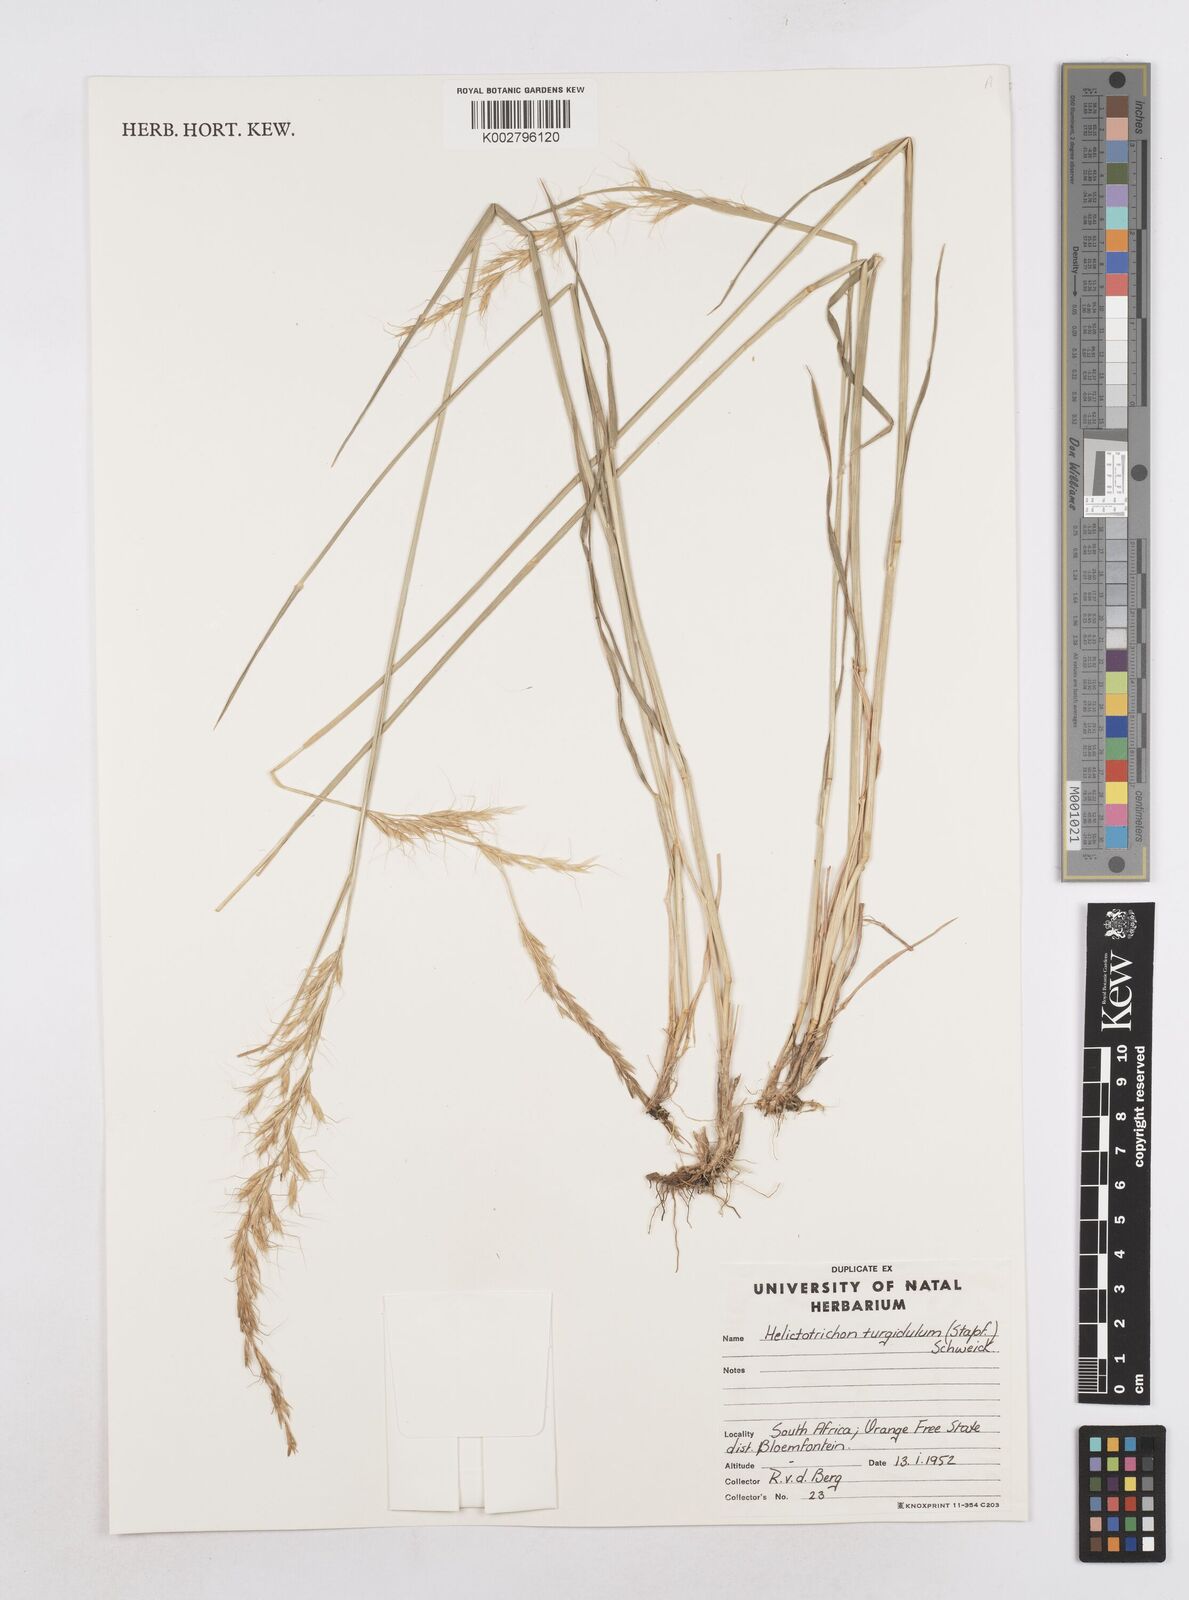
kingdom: Plantae
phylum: Tracheophyta
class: Liliopsida
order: Poales
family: Poaceae
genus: Trisetopsis
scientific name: Trisetopsis imberbis
